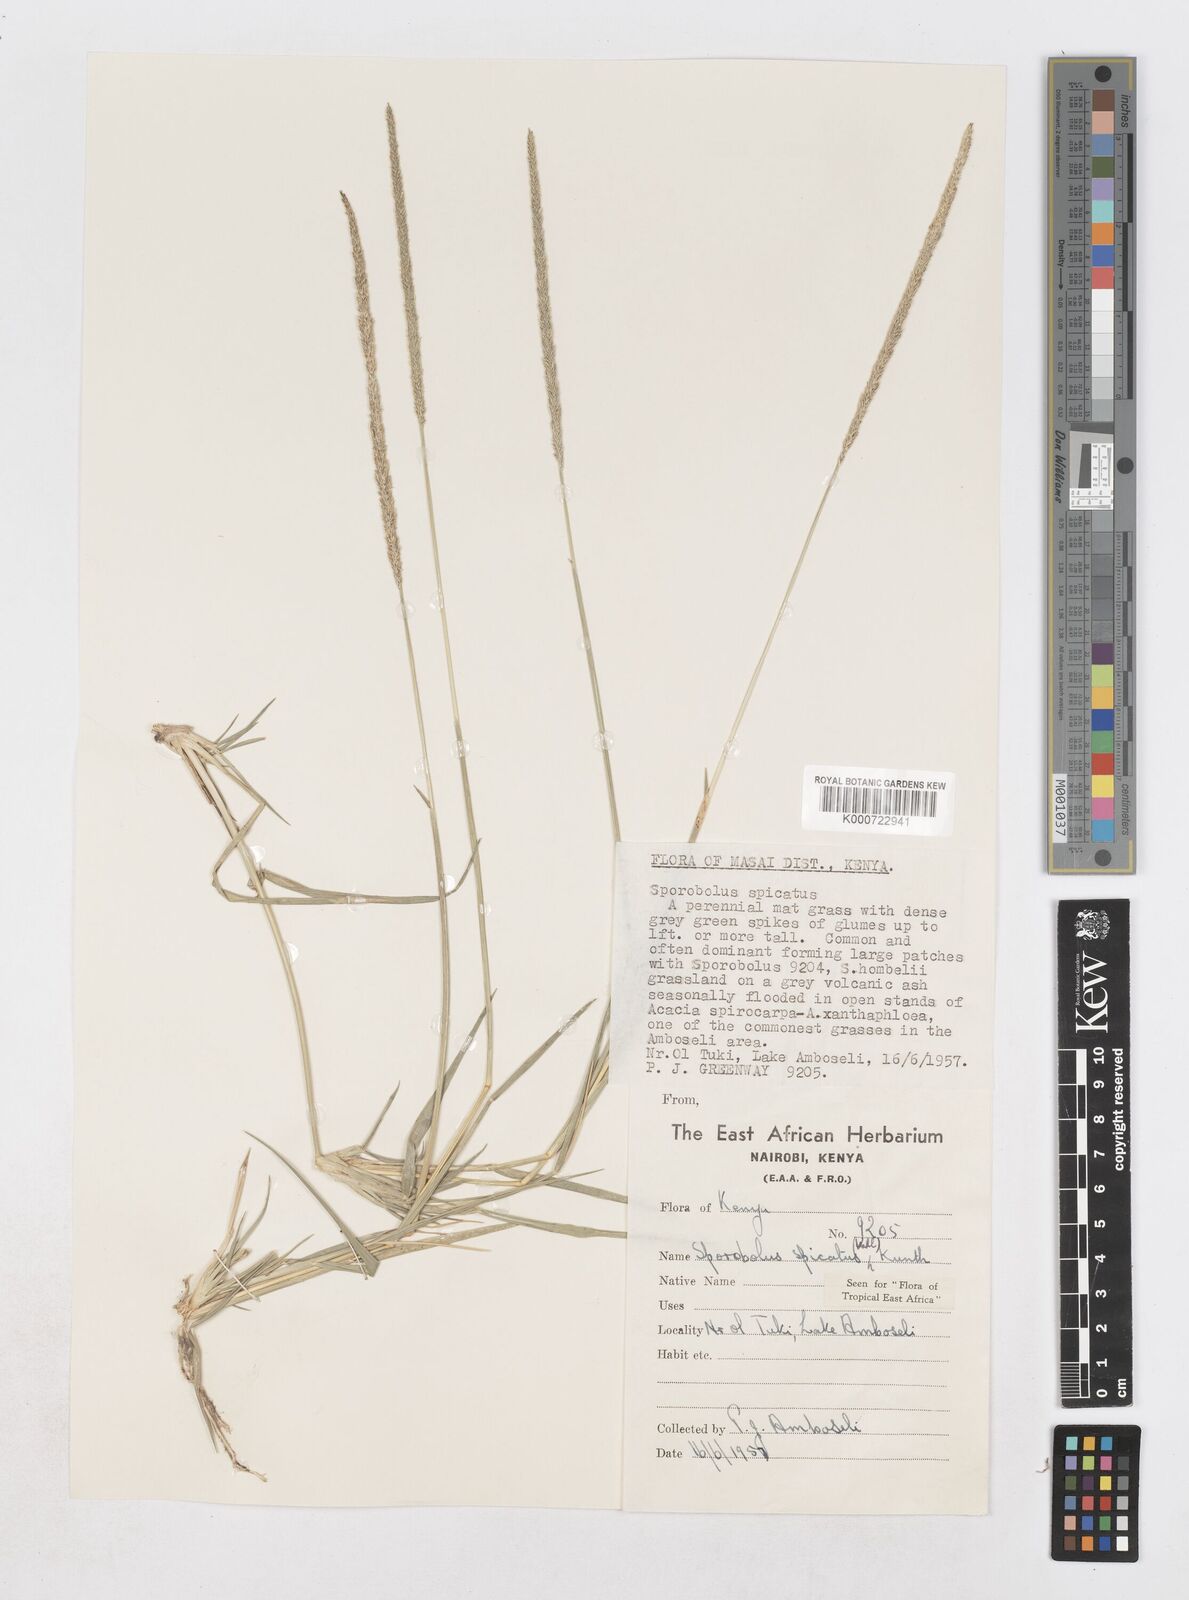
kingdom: Plantae
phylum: Tracheophyta
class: Liliopsida
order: Poales
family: Poaceae
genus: Sporobolus
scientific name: Sporobolus spicatus
